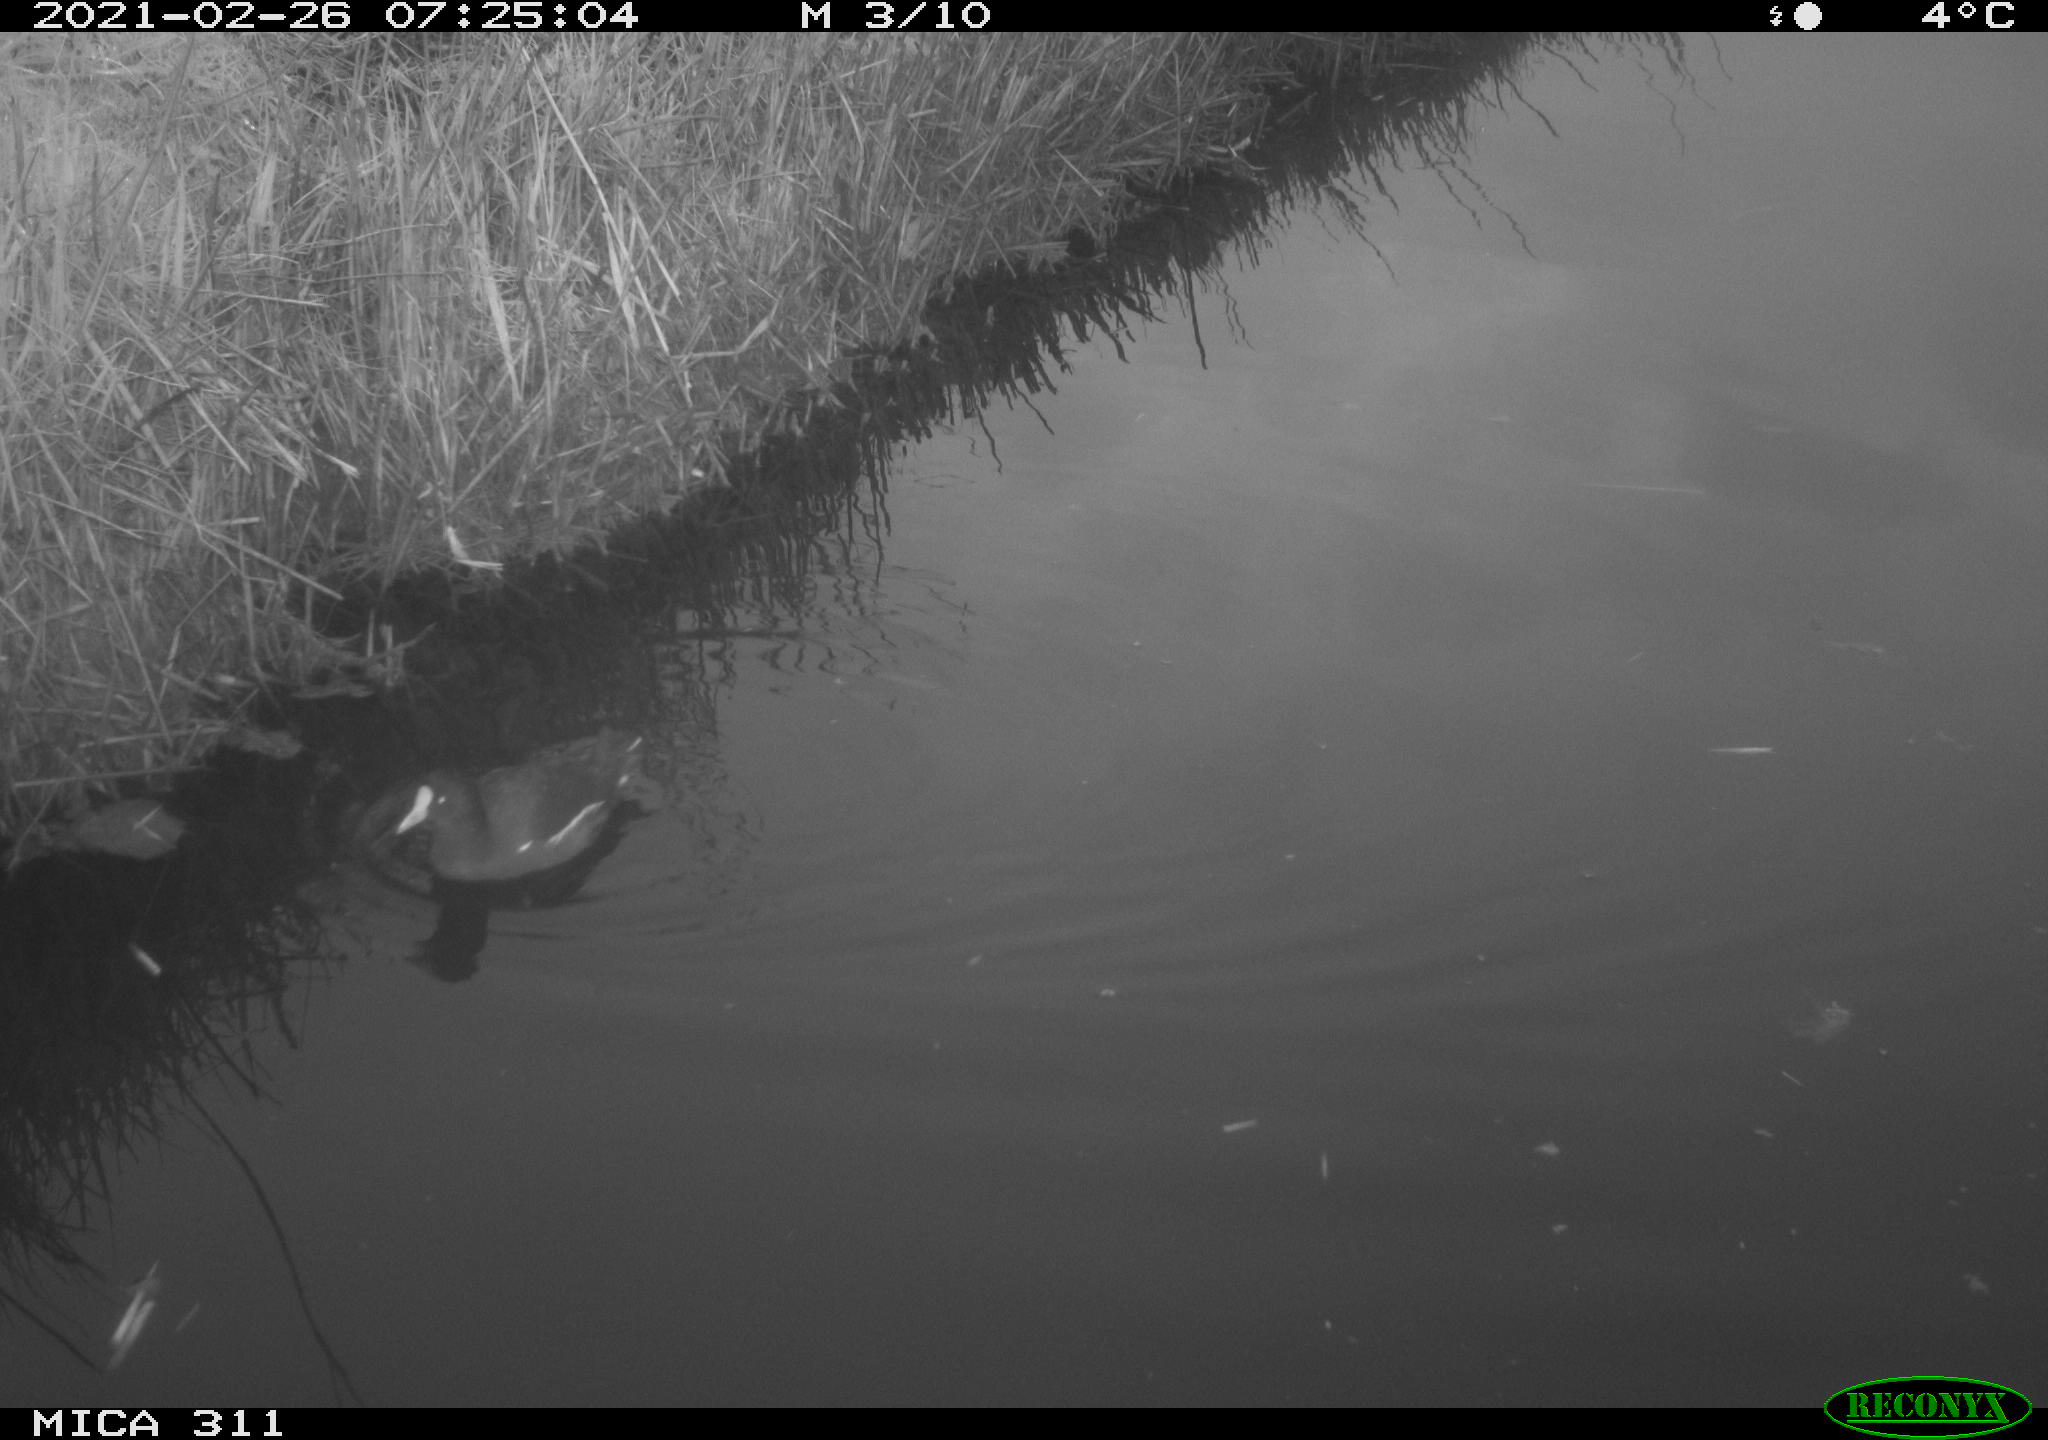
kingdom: Animalia
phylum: Chordata
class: Aves
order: Gruiformes
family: Rallidae
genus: Gallinula
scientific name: Gallinula chloropus
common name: Common moorhen
